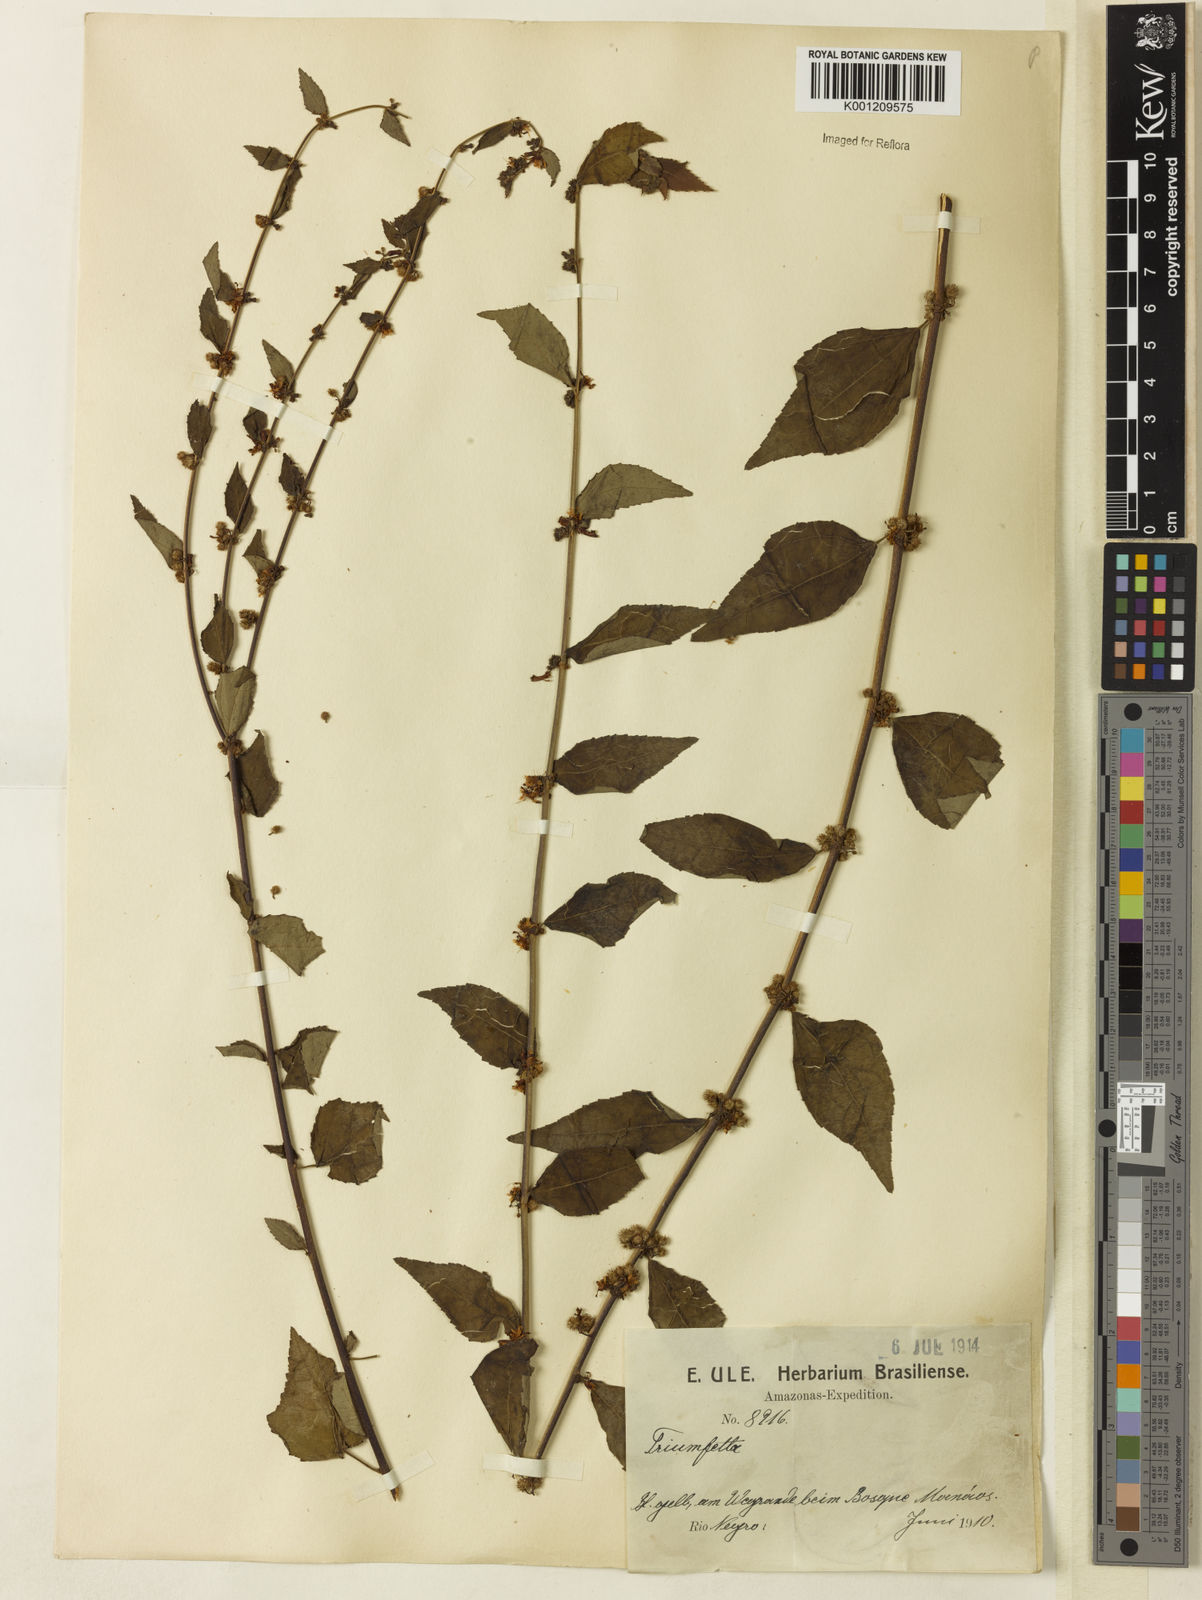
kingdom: Plantae
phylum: Tracheophyta
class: Magnoliopsida
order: Malvales
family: Malvaceae
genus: Triumfetta
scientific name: Triumfetta rhomboidea
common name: Diamond burbark
